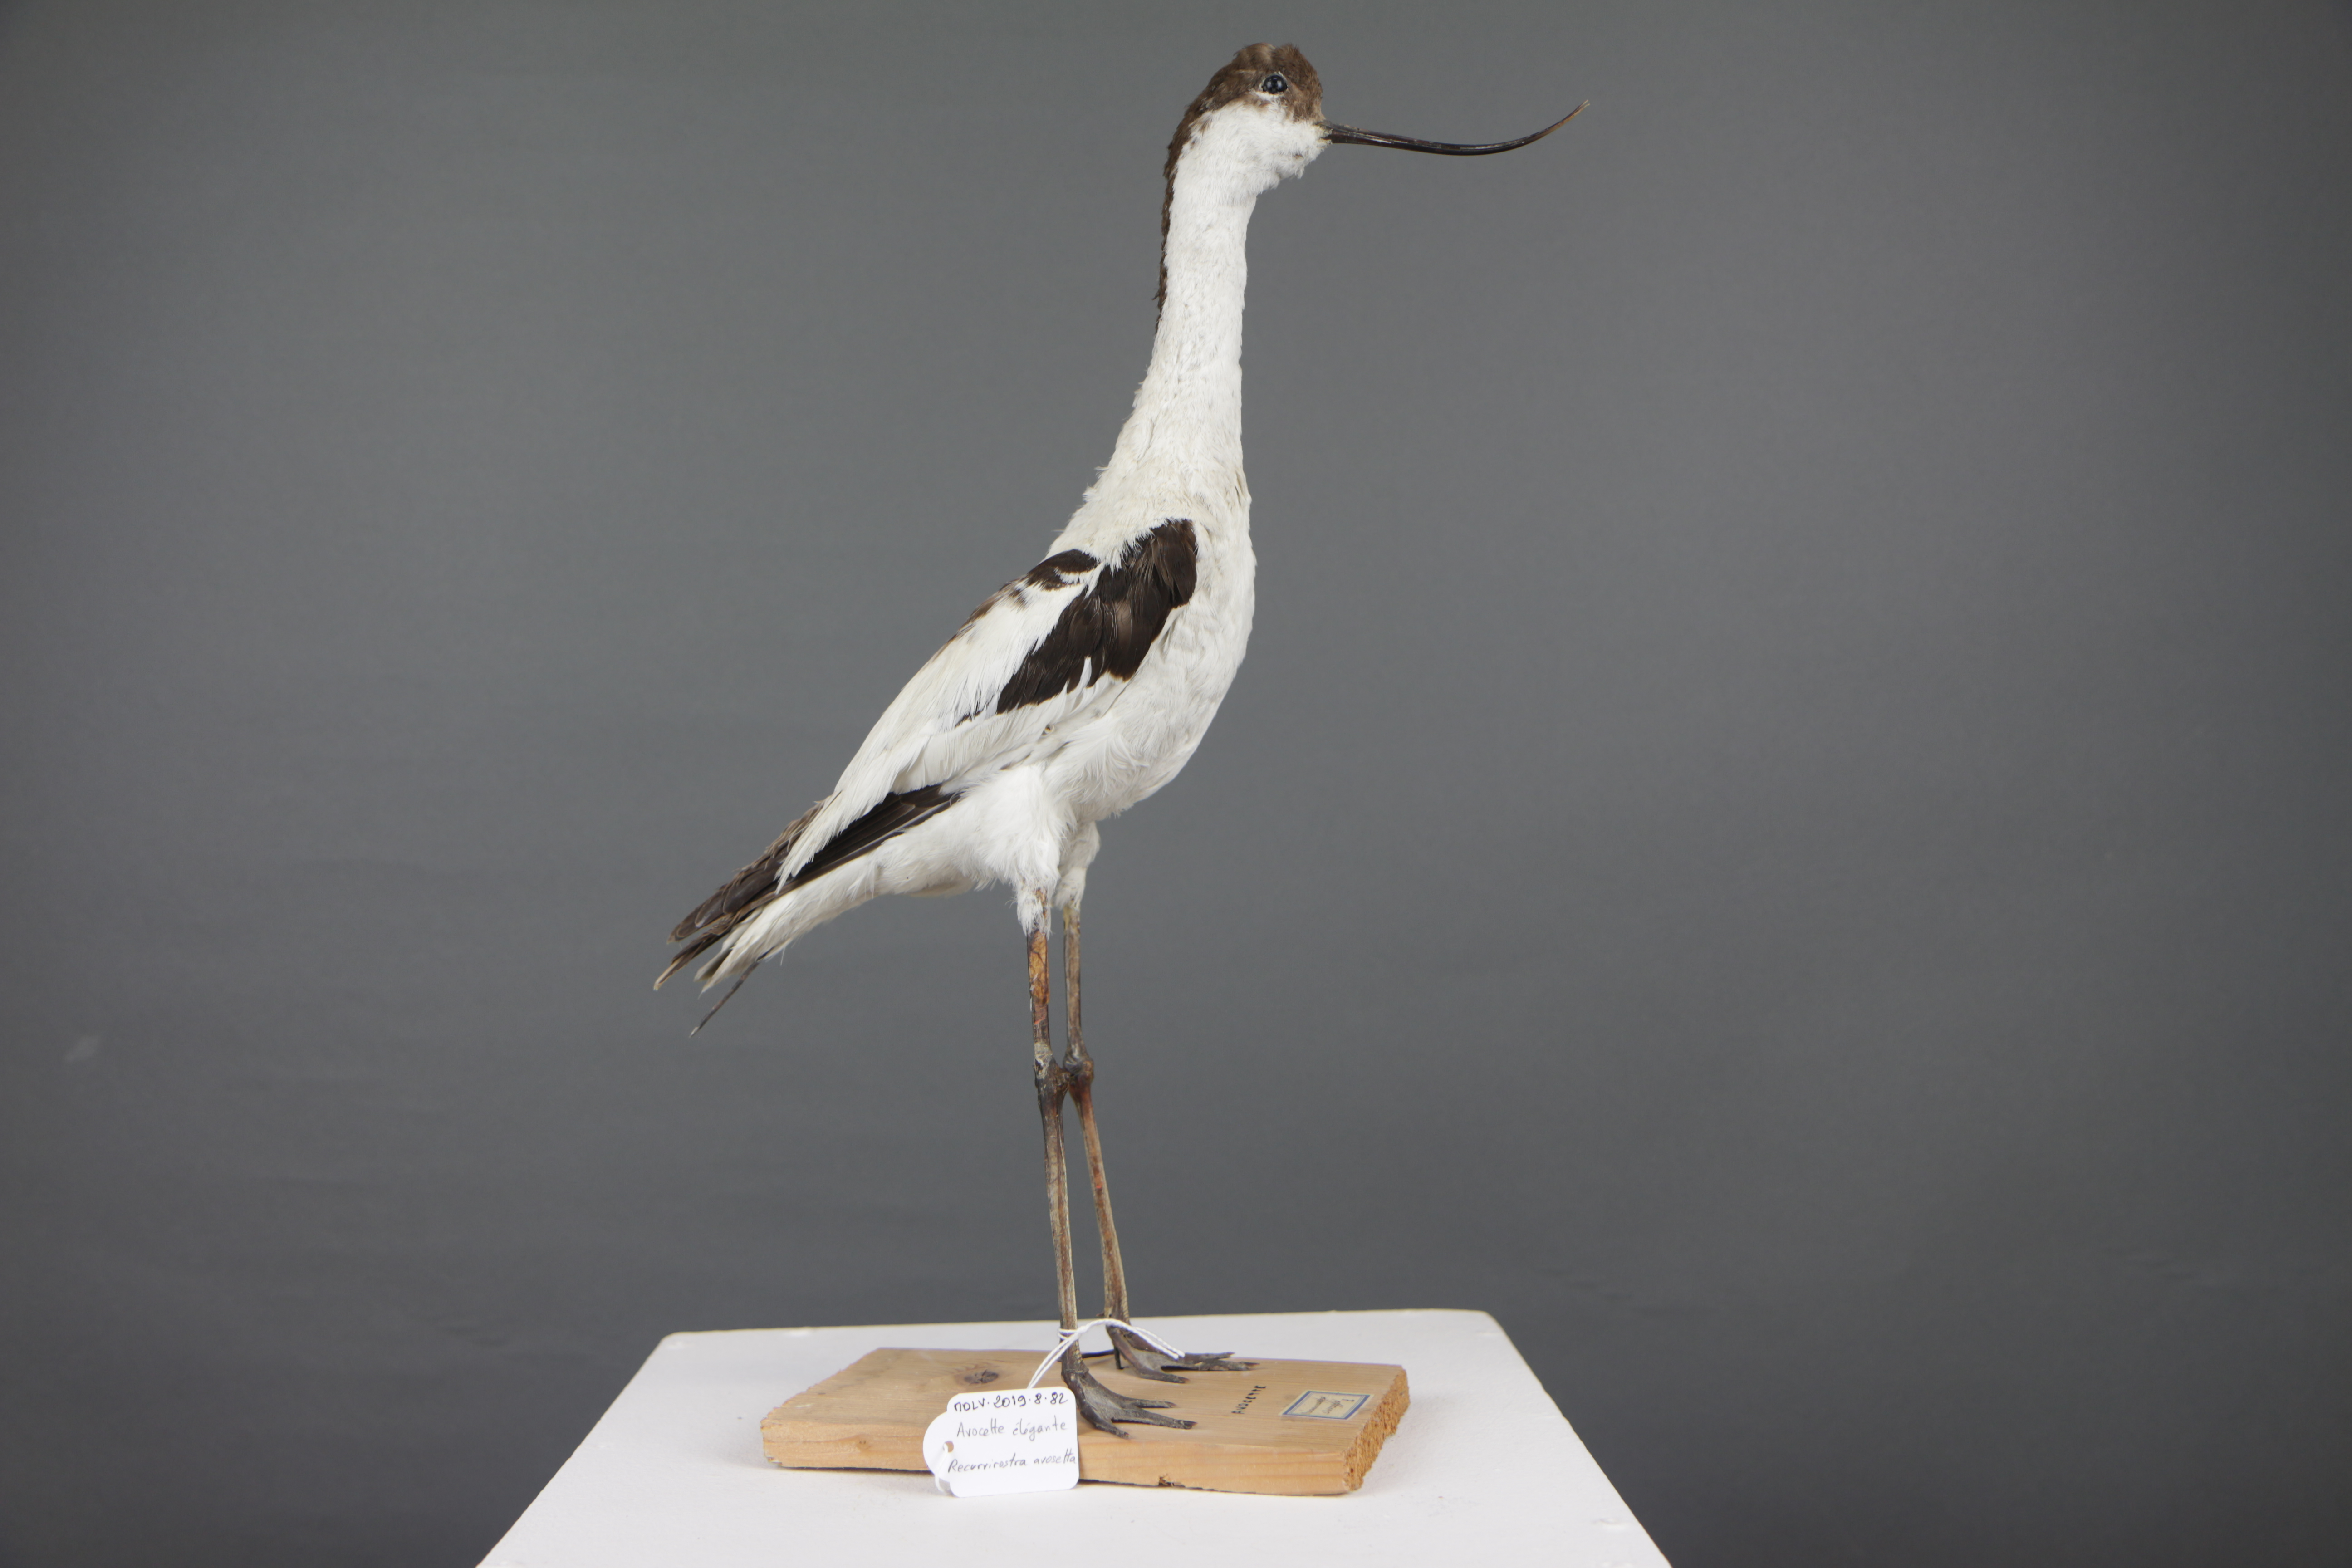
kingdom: Animalia
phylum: Chordata
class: Aves
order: Charadriiformes
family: Recurvirostridae
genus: Recurvirostra
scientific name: Recurvirostra avosetta
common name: Pied avocet
